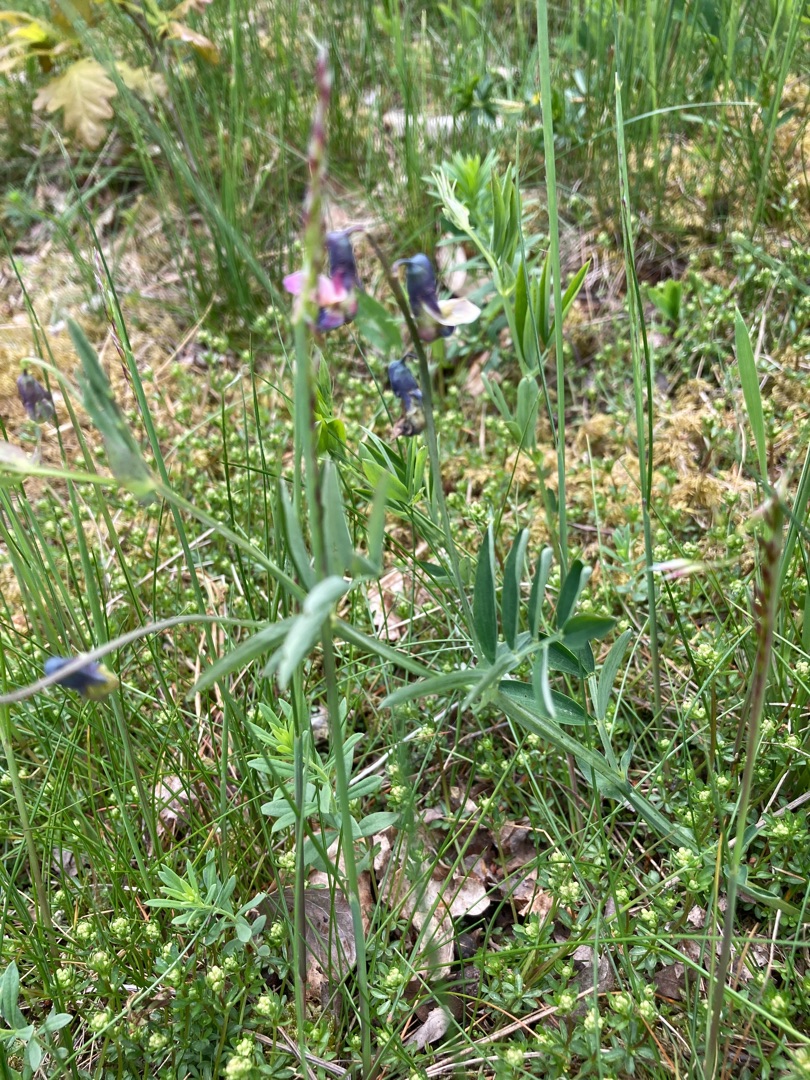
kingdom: Plantae
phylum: Tracheophyta
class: Magnoliopsida
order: Fabales
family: Fabaceae
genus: Lathyrus
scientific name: Lathyrus linifolius
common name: Krat-fladbælg
